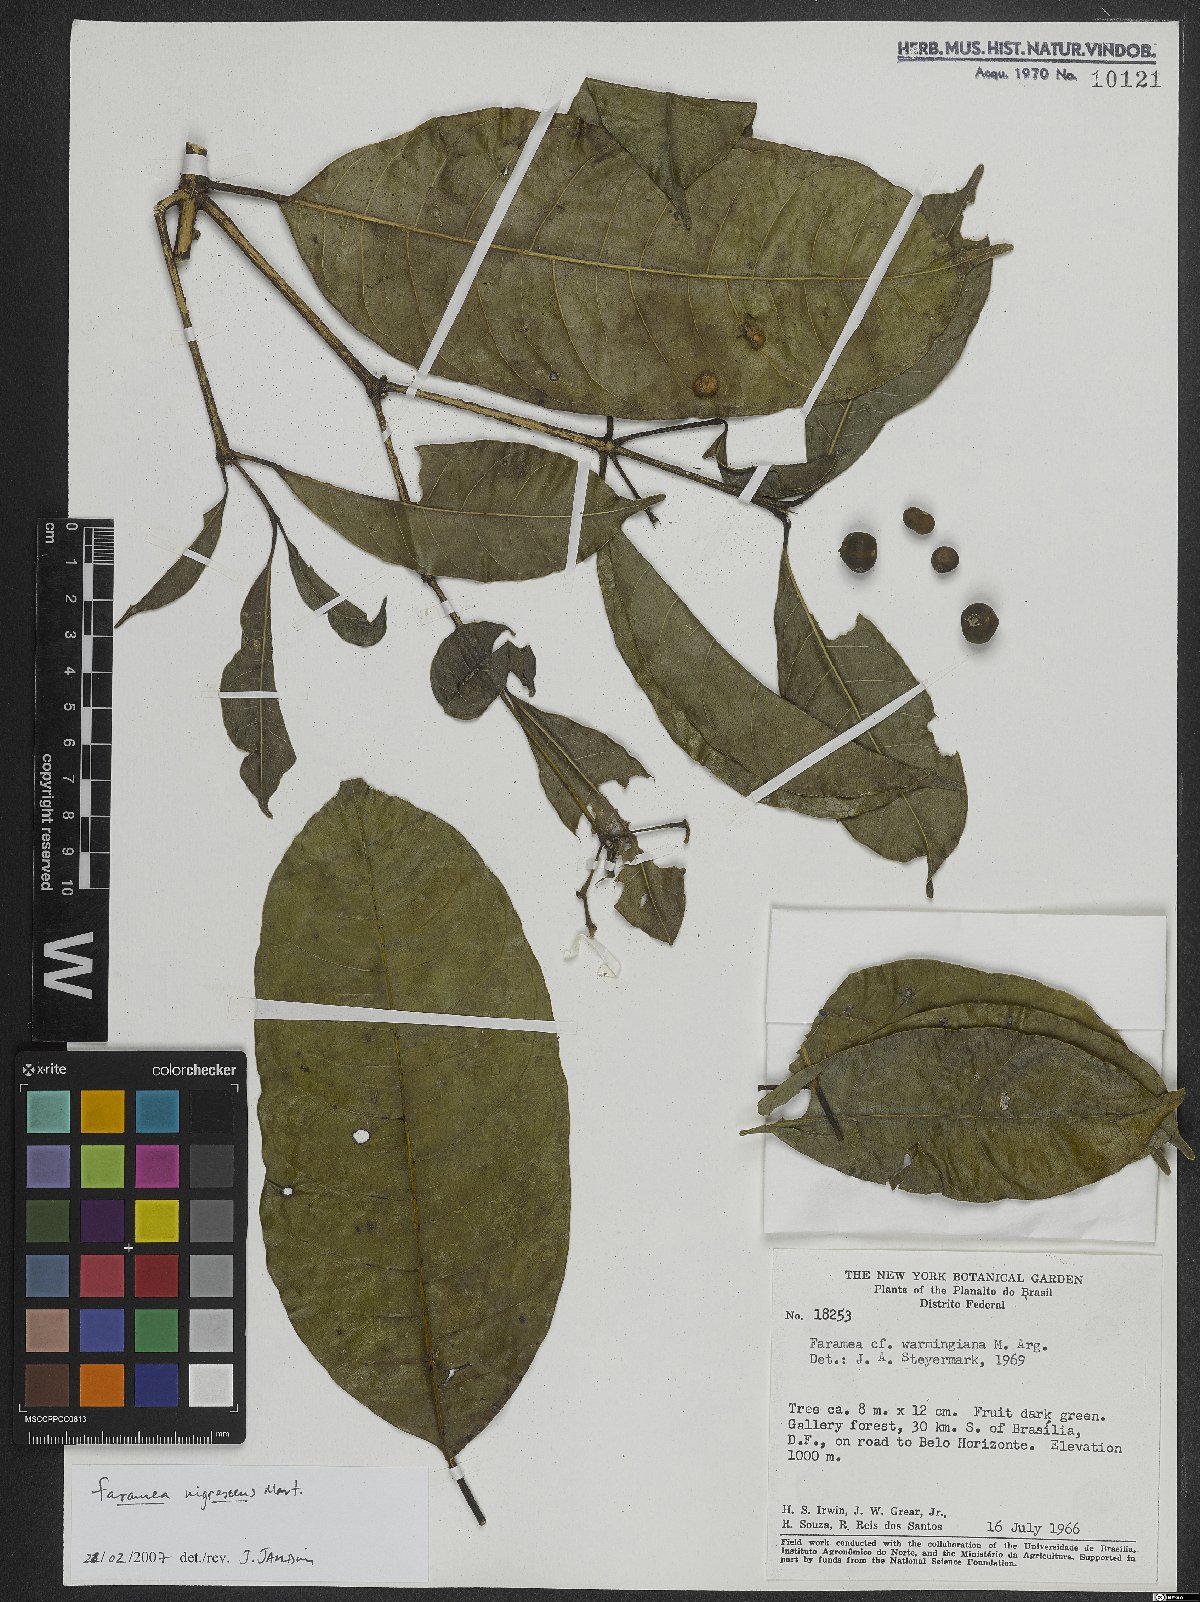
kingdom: Plantae
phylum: Tracheophyta
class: Magnoliopsida
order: Gentianales
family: Rubiaceae
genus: Faramea
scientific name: Faramea nigrescens
